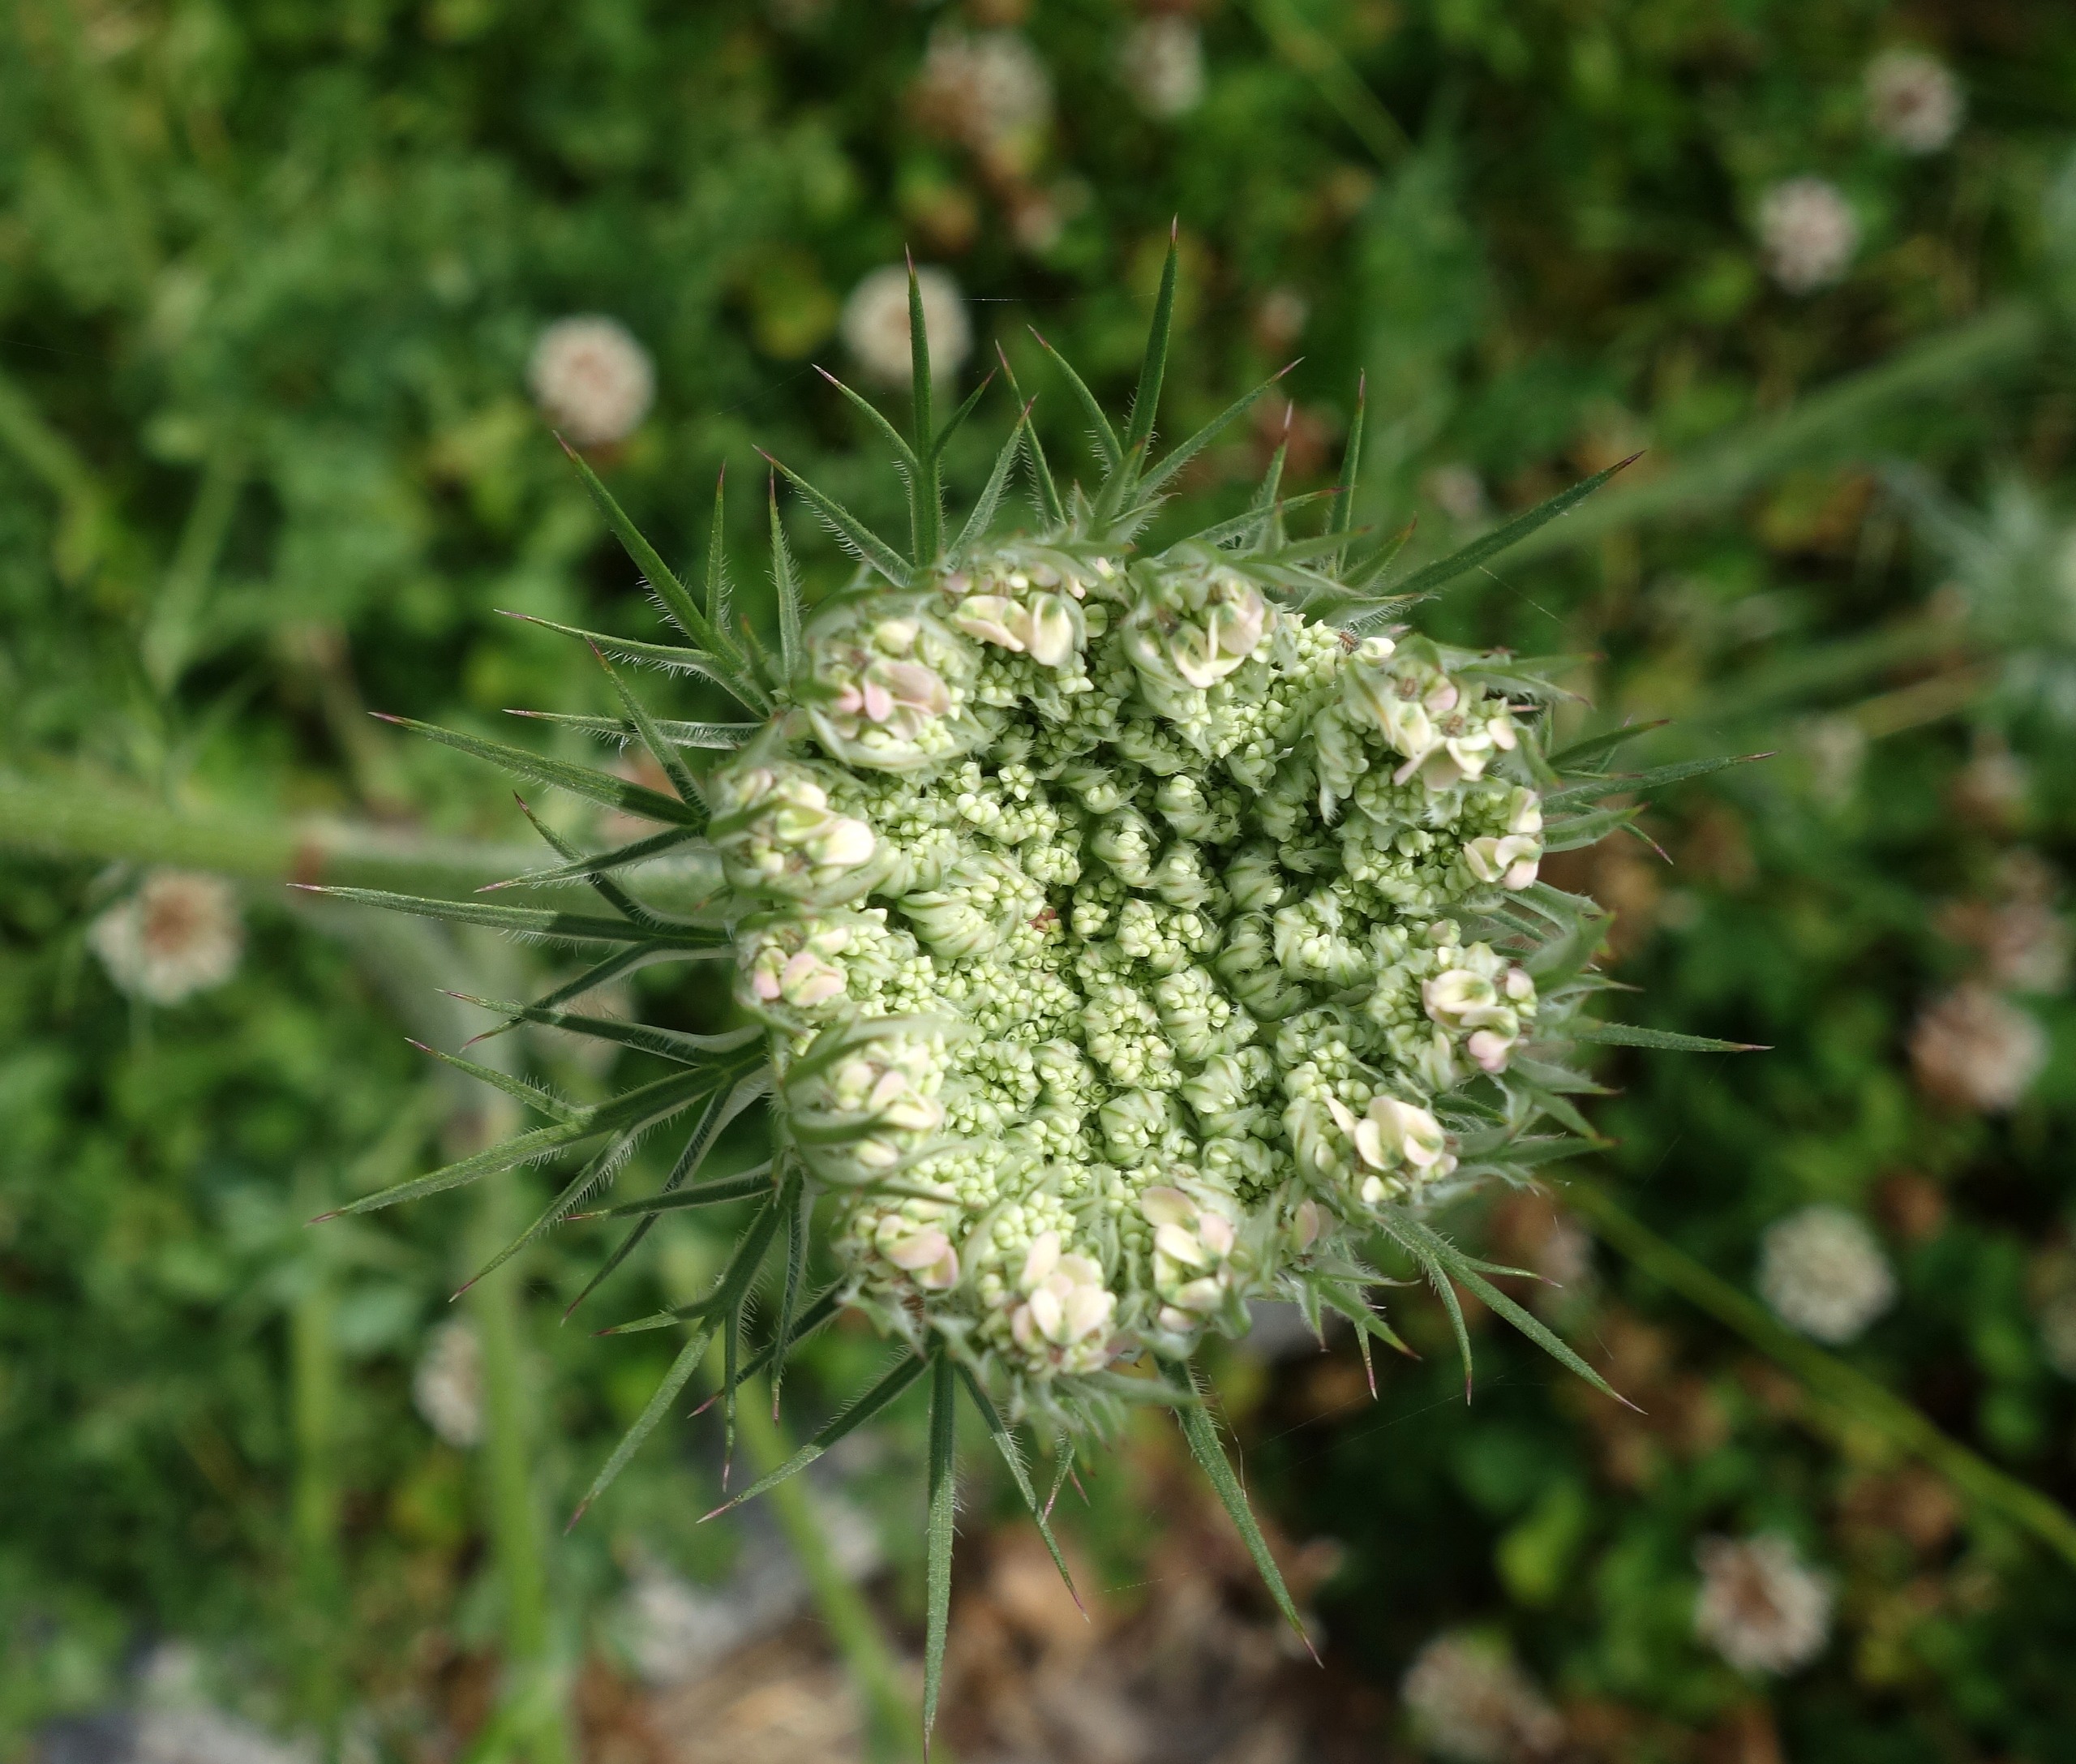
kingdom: Plantae
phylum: Tracheophyta
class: Magnoliopsida
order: Apiales
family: Apiaceae
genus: Daucus
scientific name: Daucus carota
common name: Gulerod
